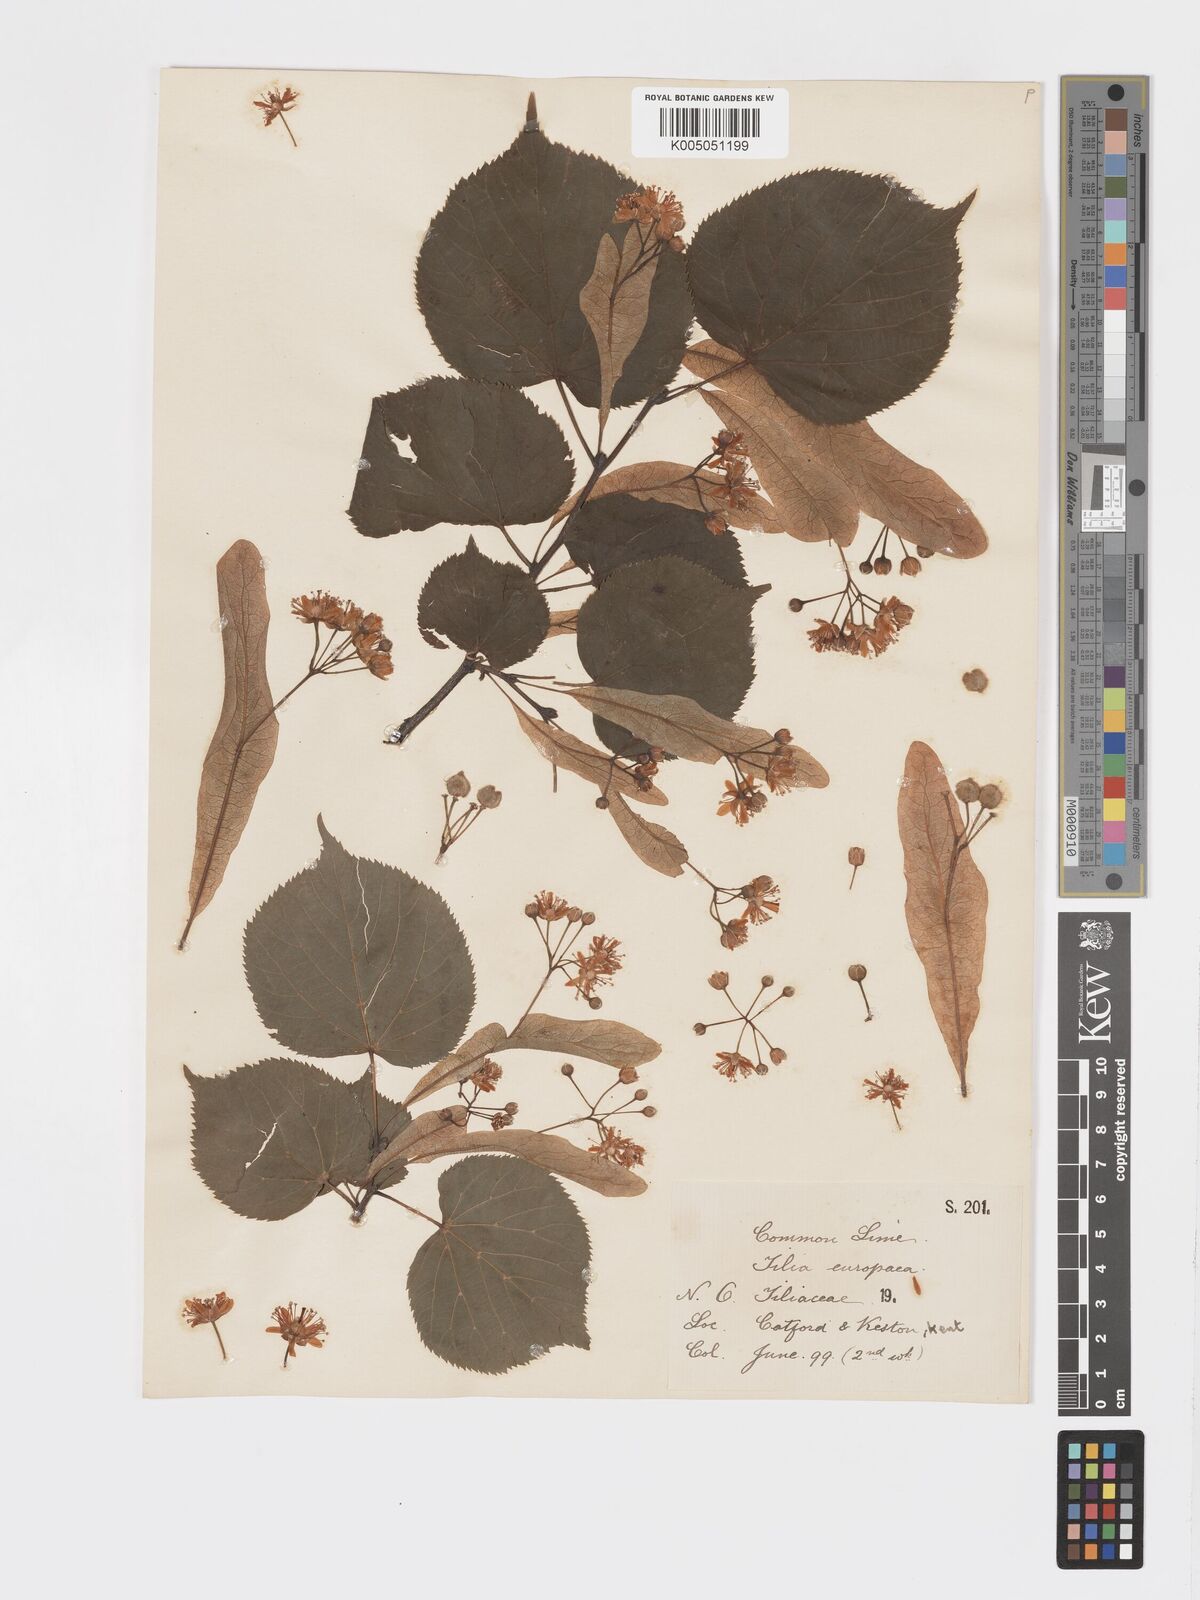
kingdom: Plantae
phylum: Tracheophyta
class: Magnoliopsida
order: Malvales
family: Malvaceae
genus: Tilia
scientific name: Tilia
